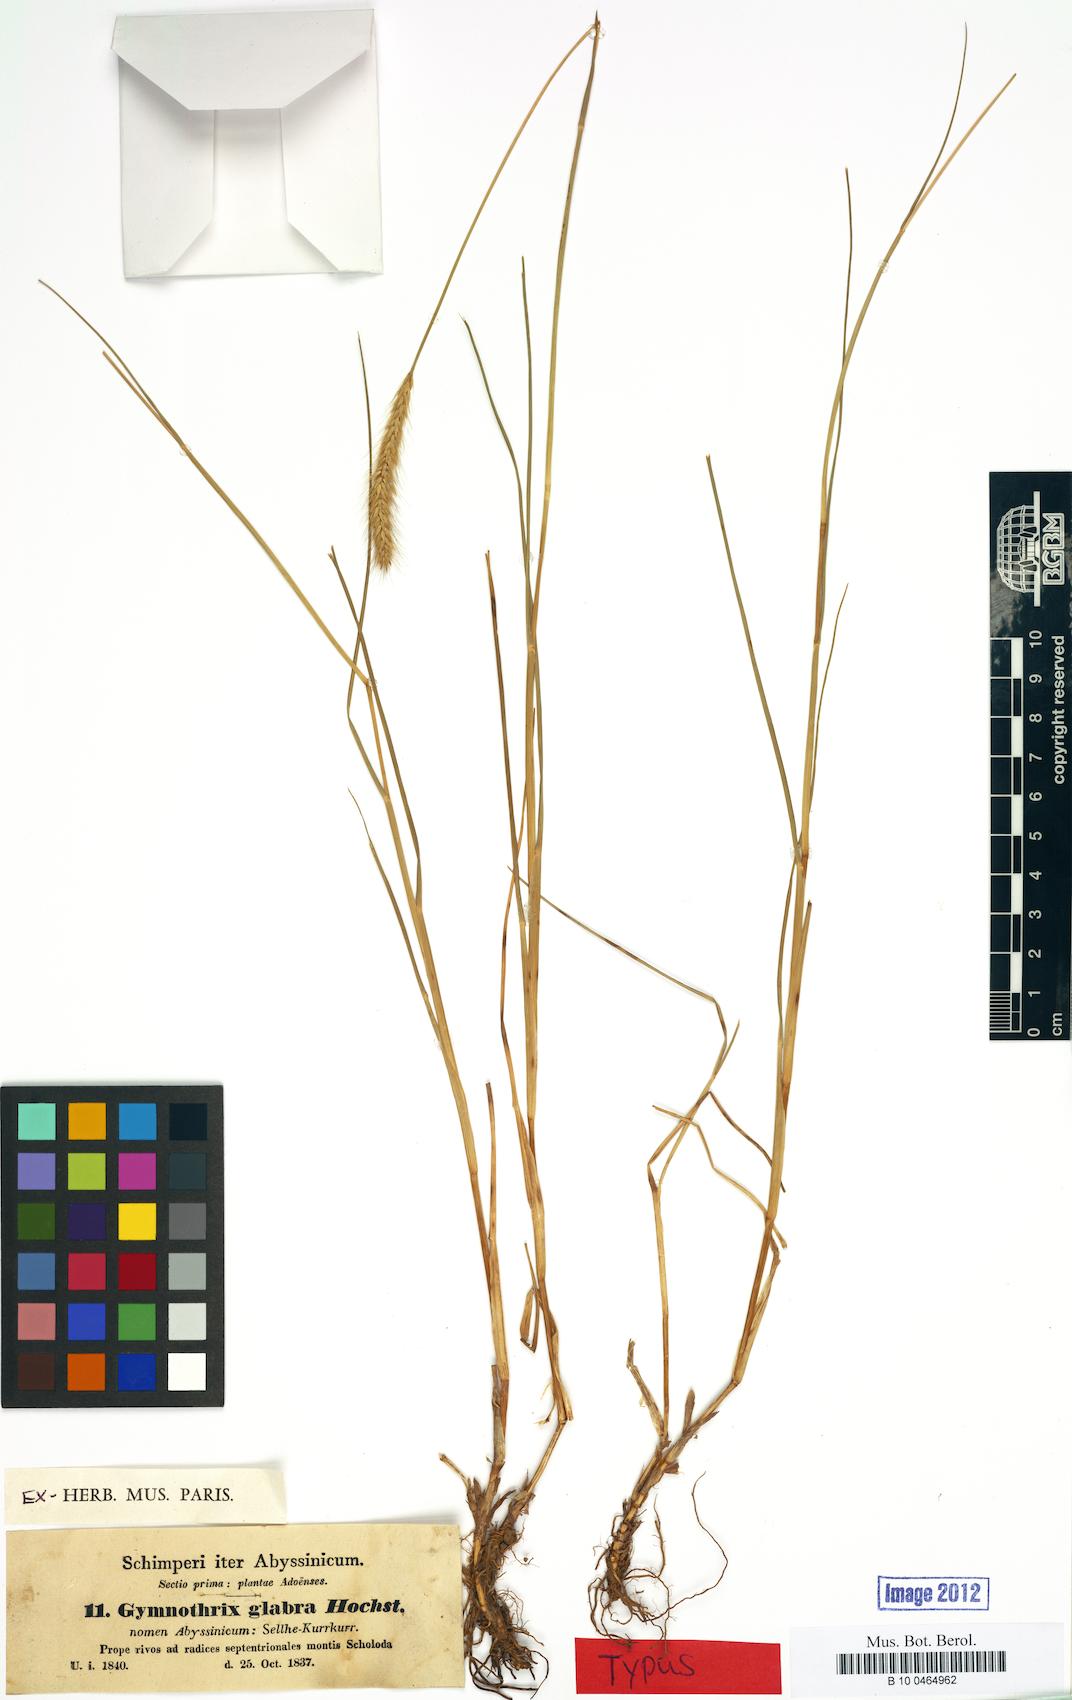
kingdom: Plantae
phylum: Tracheophyta
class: Liliopsida
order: Poales
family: Poaceae
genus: Gymnothrix
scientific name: Gymnothrix
